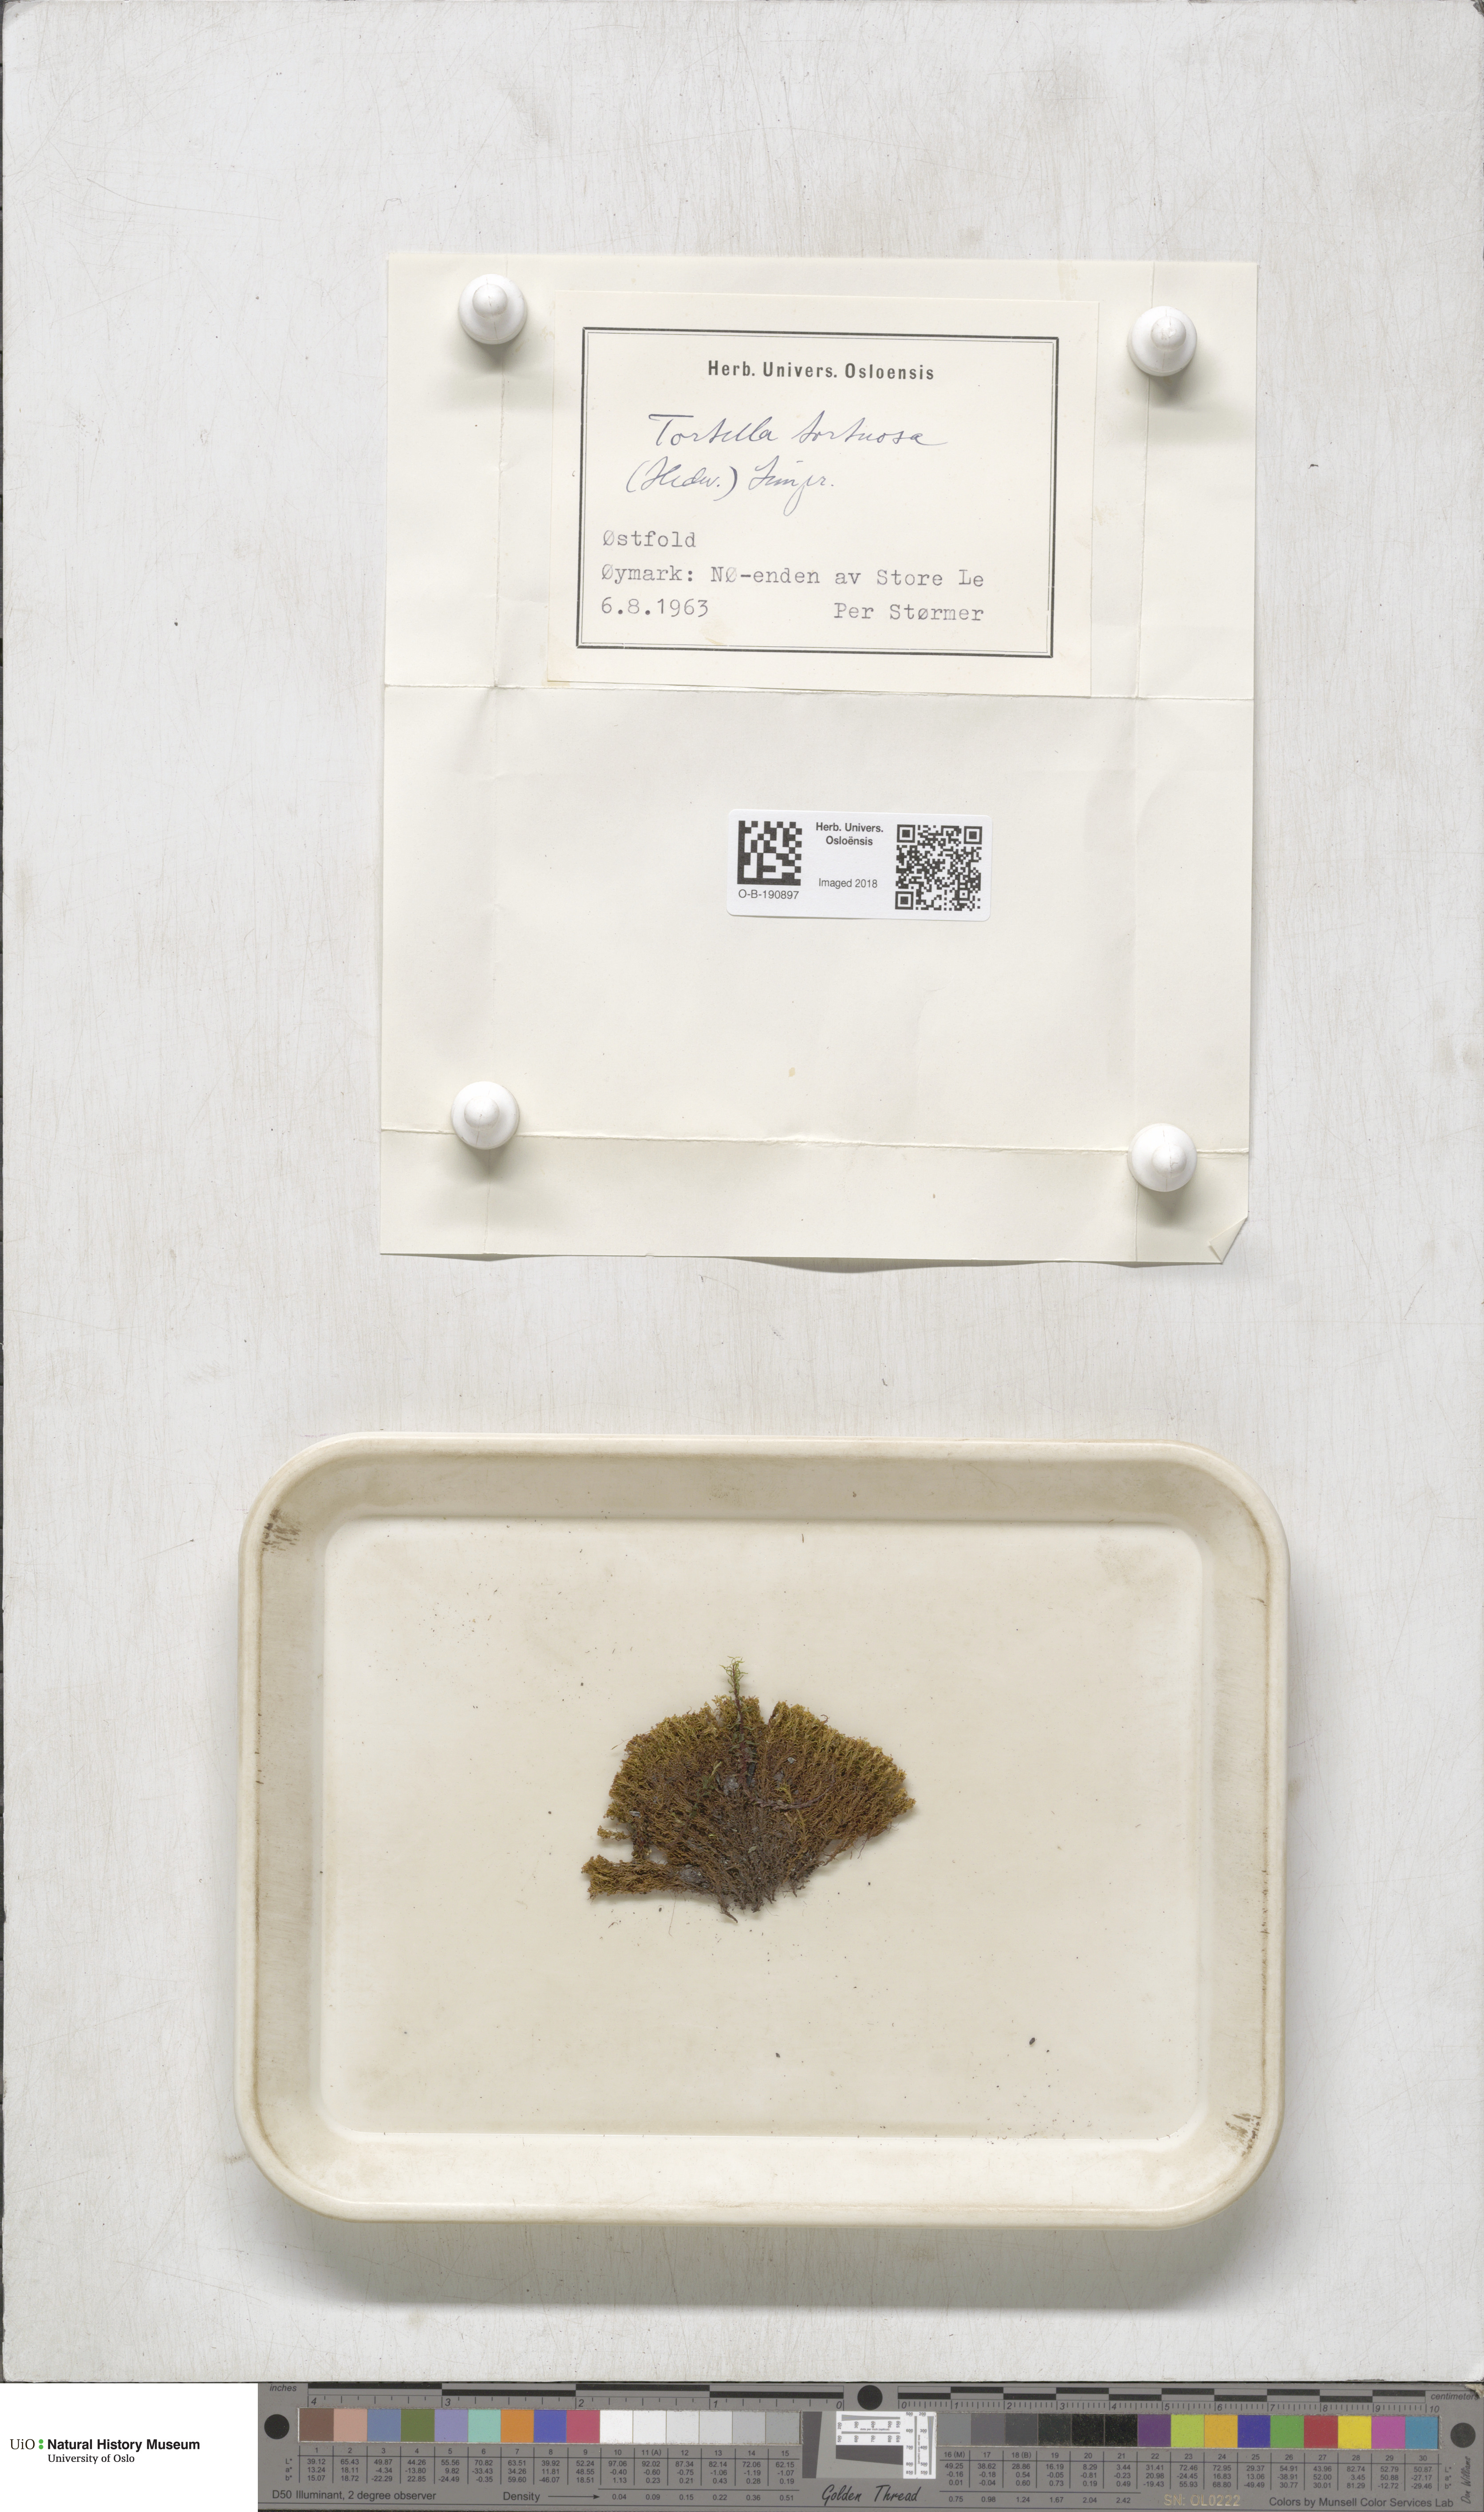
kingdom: Plantae
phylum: Bryophyta
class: Bryopsida
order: Pottiales
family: Pottiaceae
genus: Tortella
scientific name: Tortella tortuosa
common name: Frizzled crisp moss
